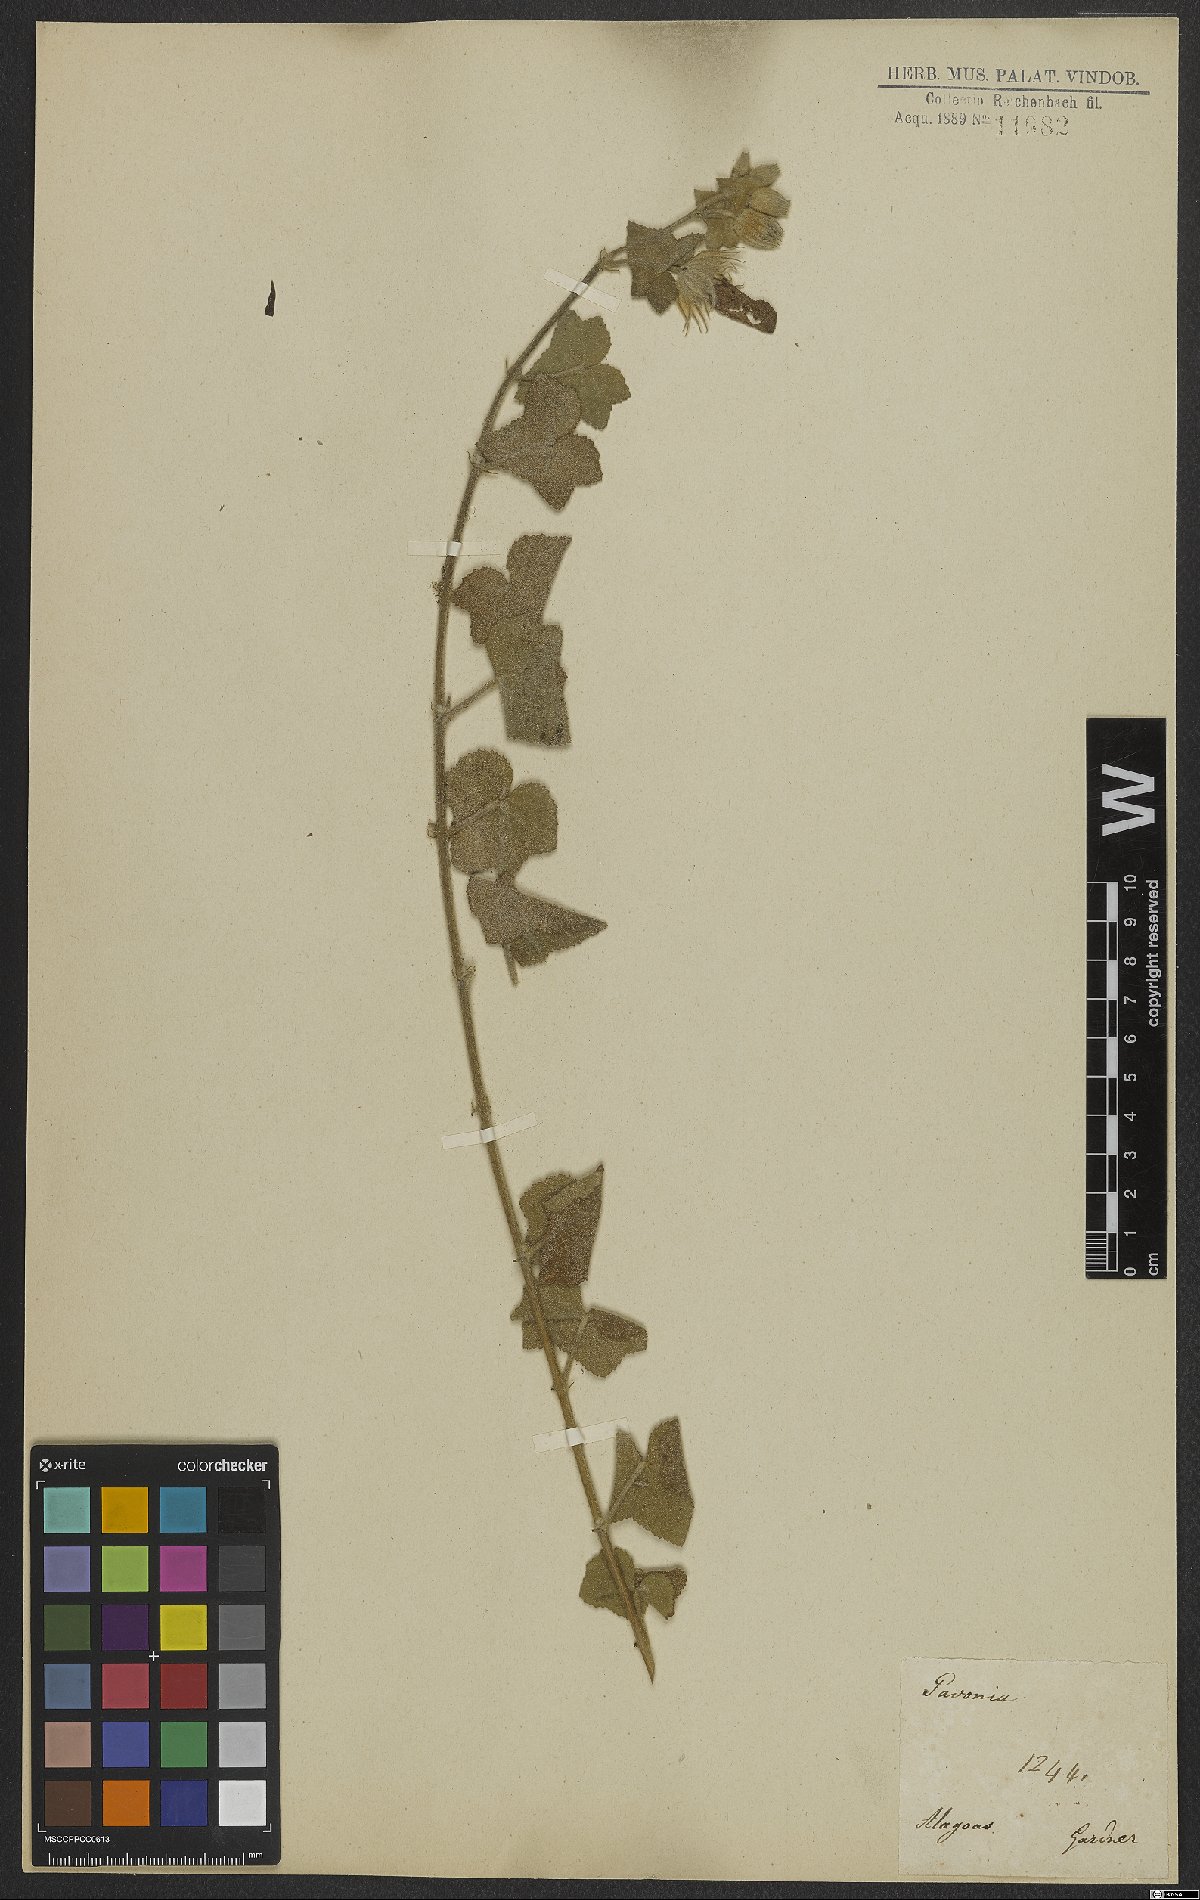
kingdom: Plantae
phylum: Tracheophyta
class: Magnoliopsida
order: Malvales
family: Malvaceae
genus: Pavonia
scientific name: Pavonia humifusa
